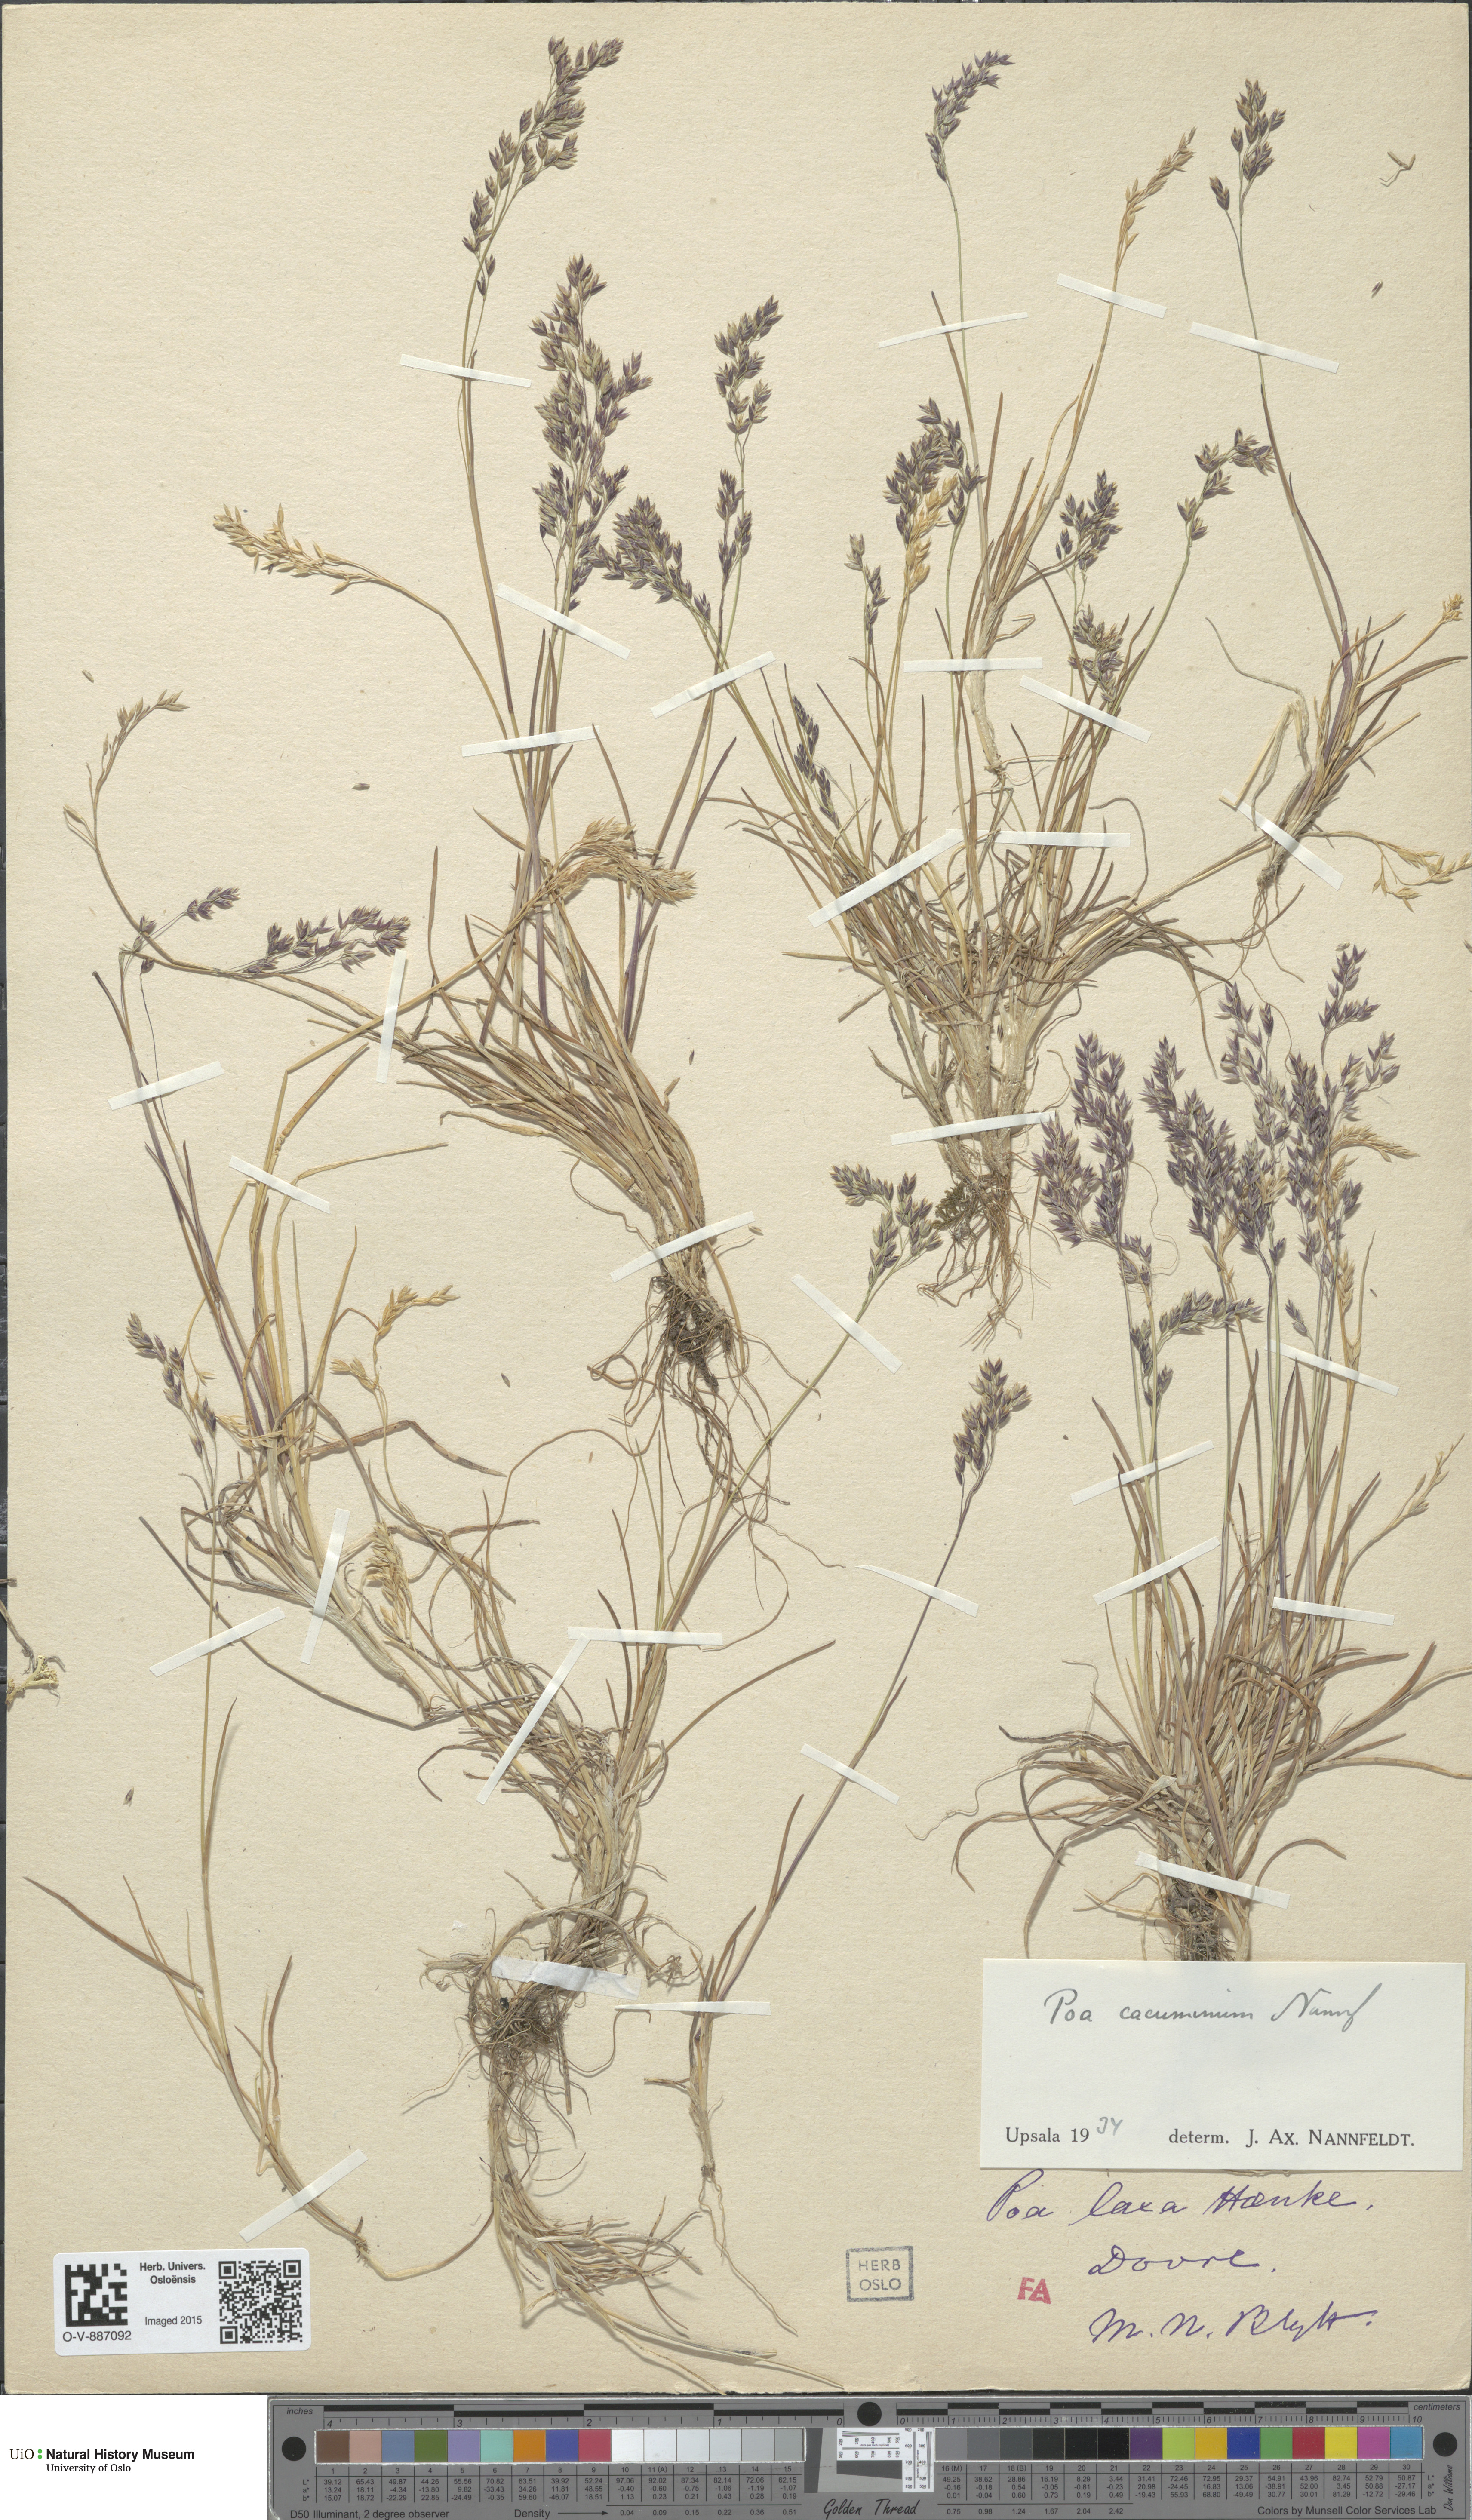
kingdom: Plantae
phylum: Tracheophyta
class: Liliopsida
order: Poales
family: Poaceae
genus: Poa
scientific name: Poa flexuosa
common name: Wavy meadow-grass
